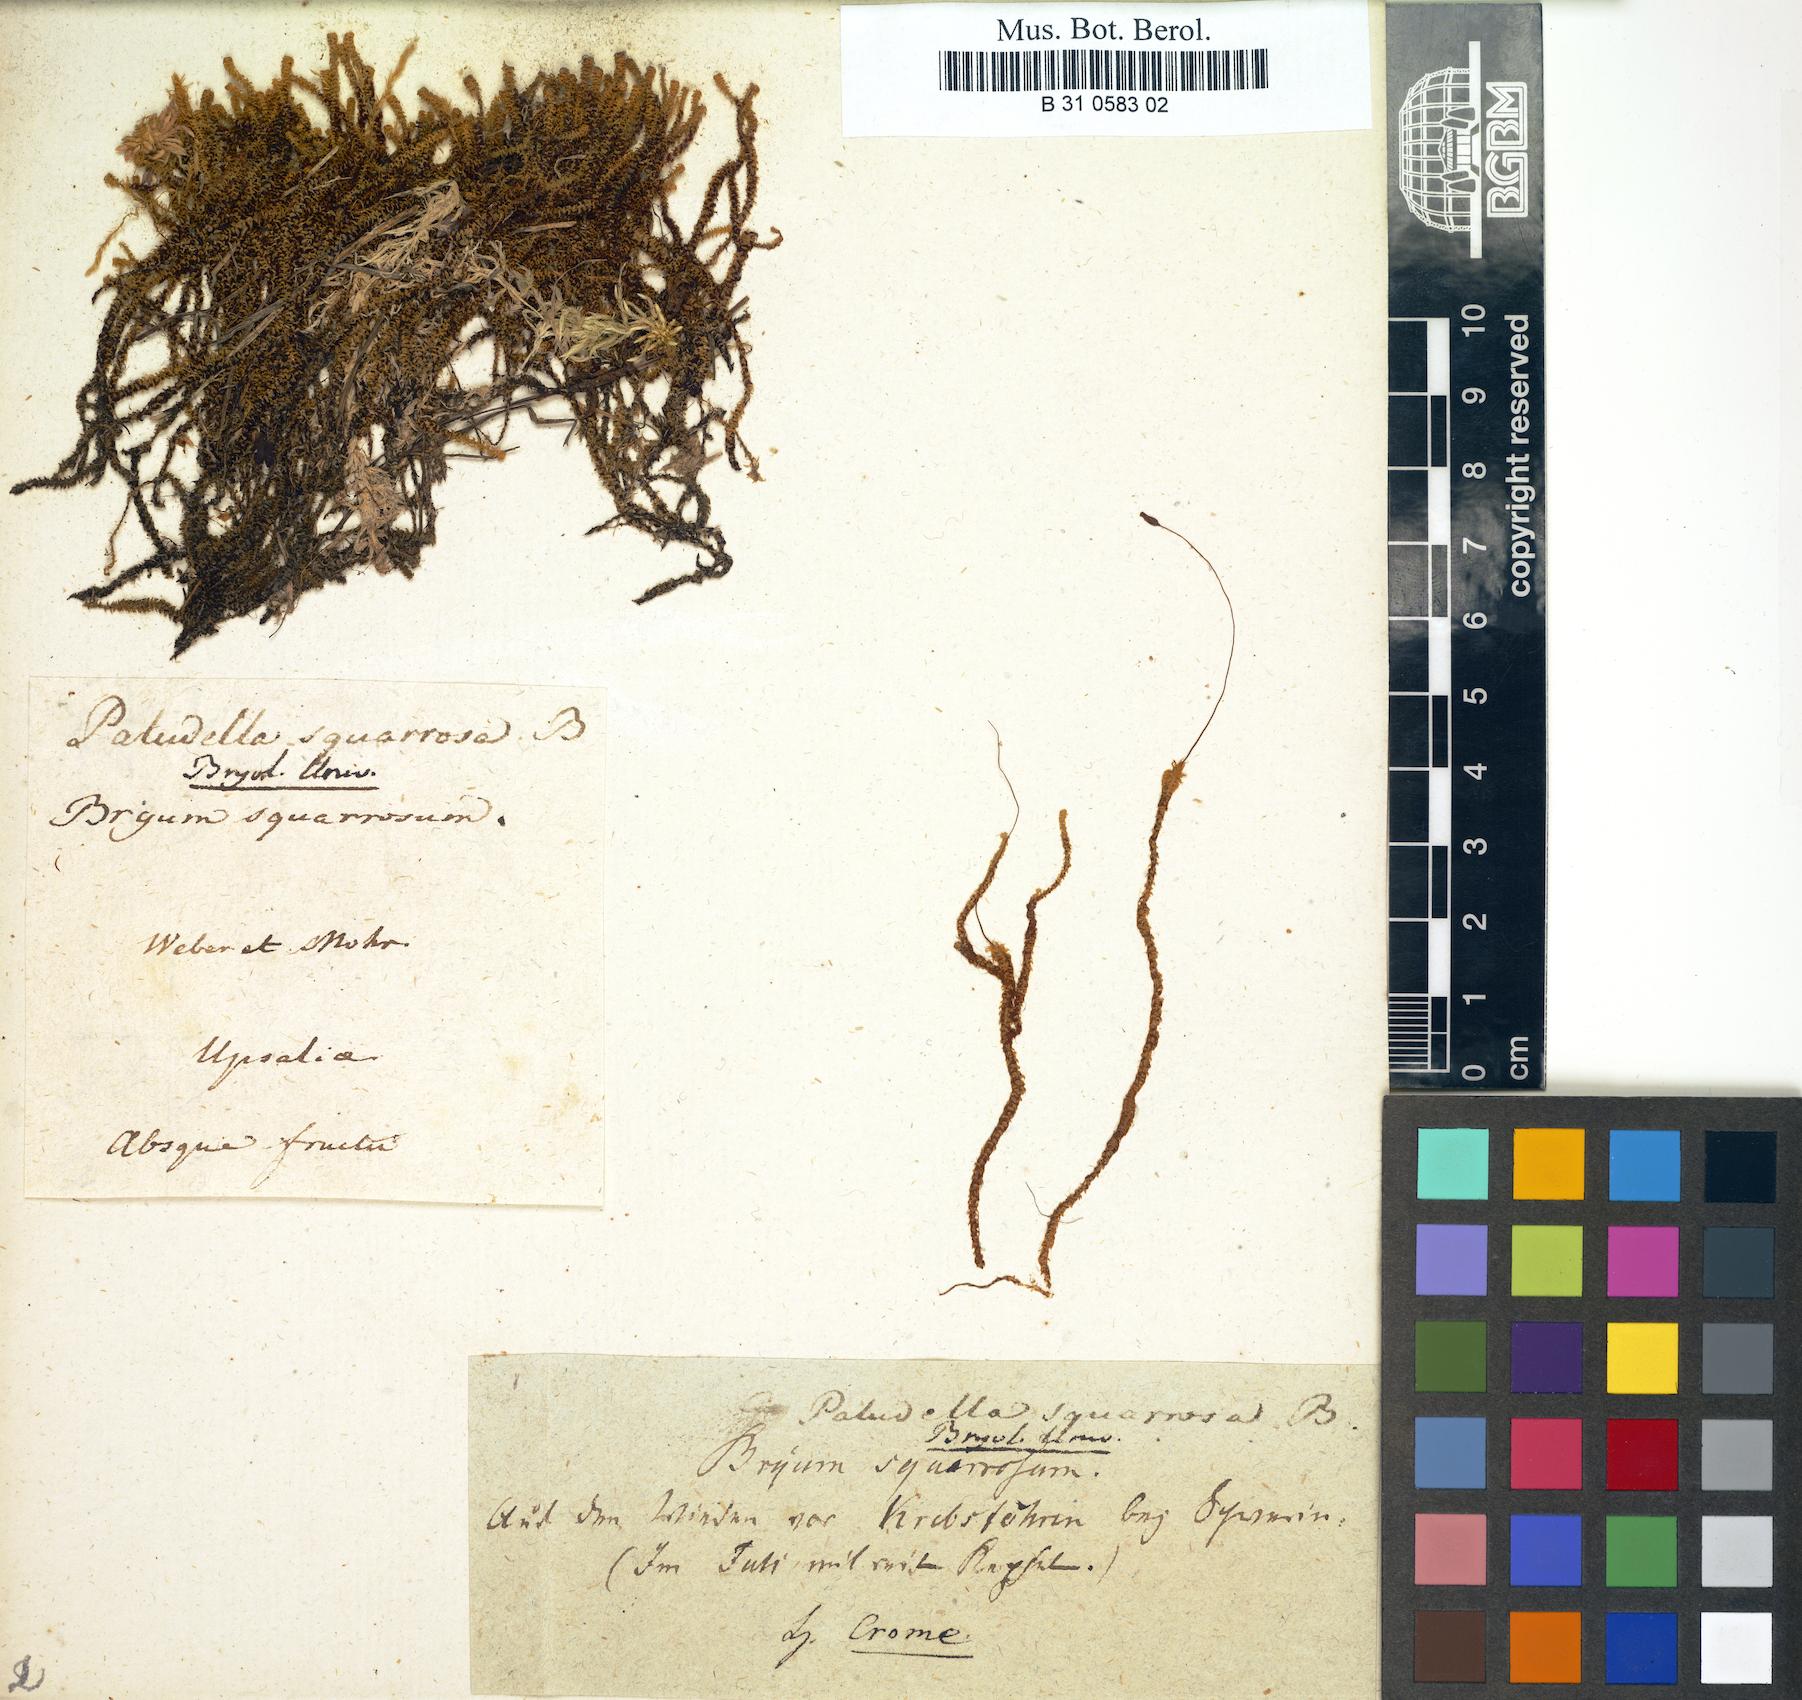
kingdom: Plantae
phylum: Bryophyta
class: Bryopsida
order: Splachnales
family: Meesiaceae
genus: Paludella
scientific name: Paludella squarrosa
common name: Tufted fen moss
